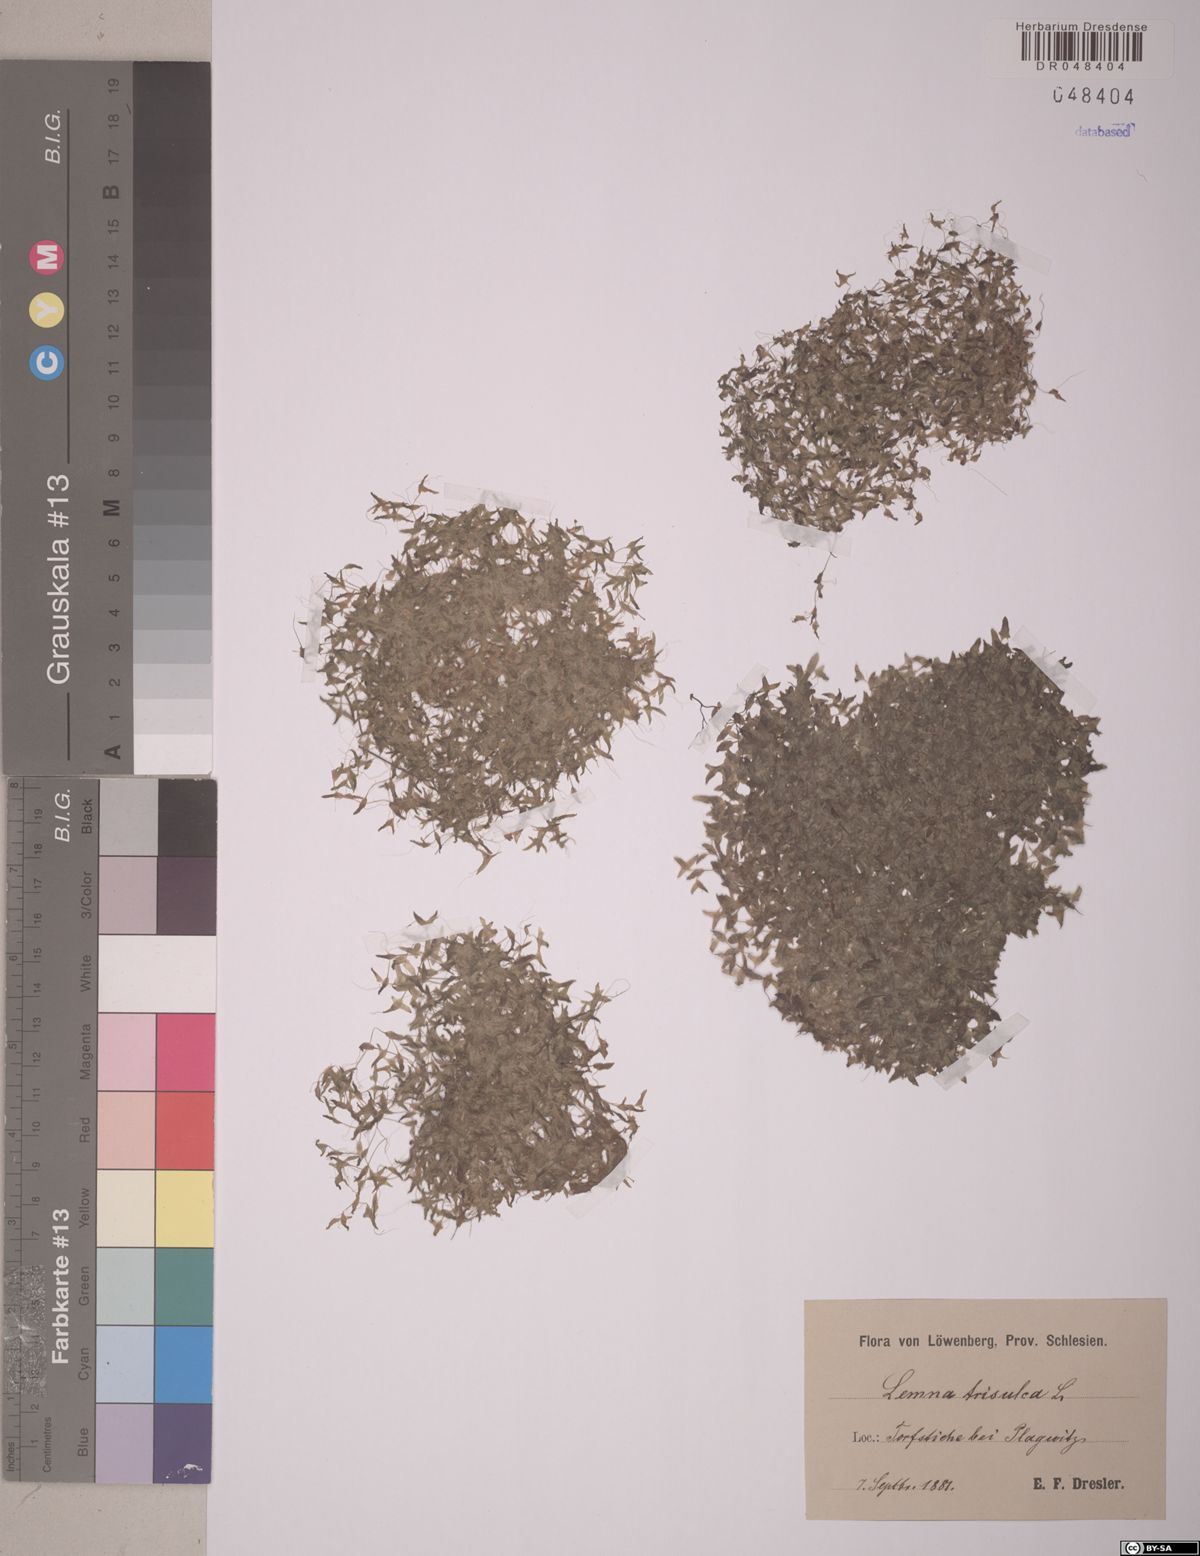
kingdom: Plantae
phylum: Tracheophyta
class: Liliopsida
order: Alismatales
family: Araceae
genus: Lemna
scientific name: Lemna trisulca
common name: Ivy-leaved duckweed
